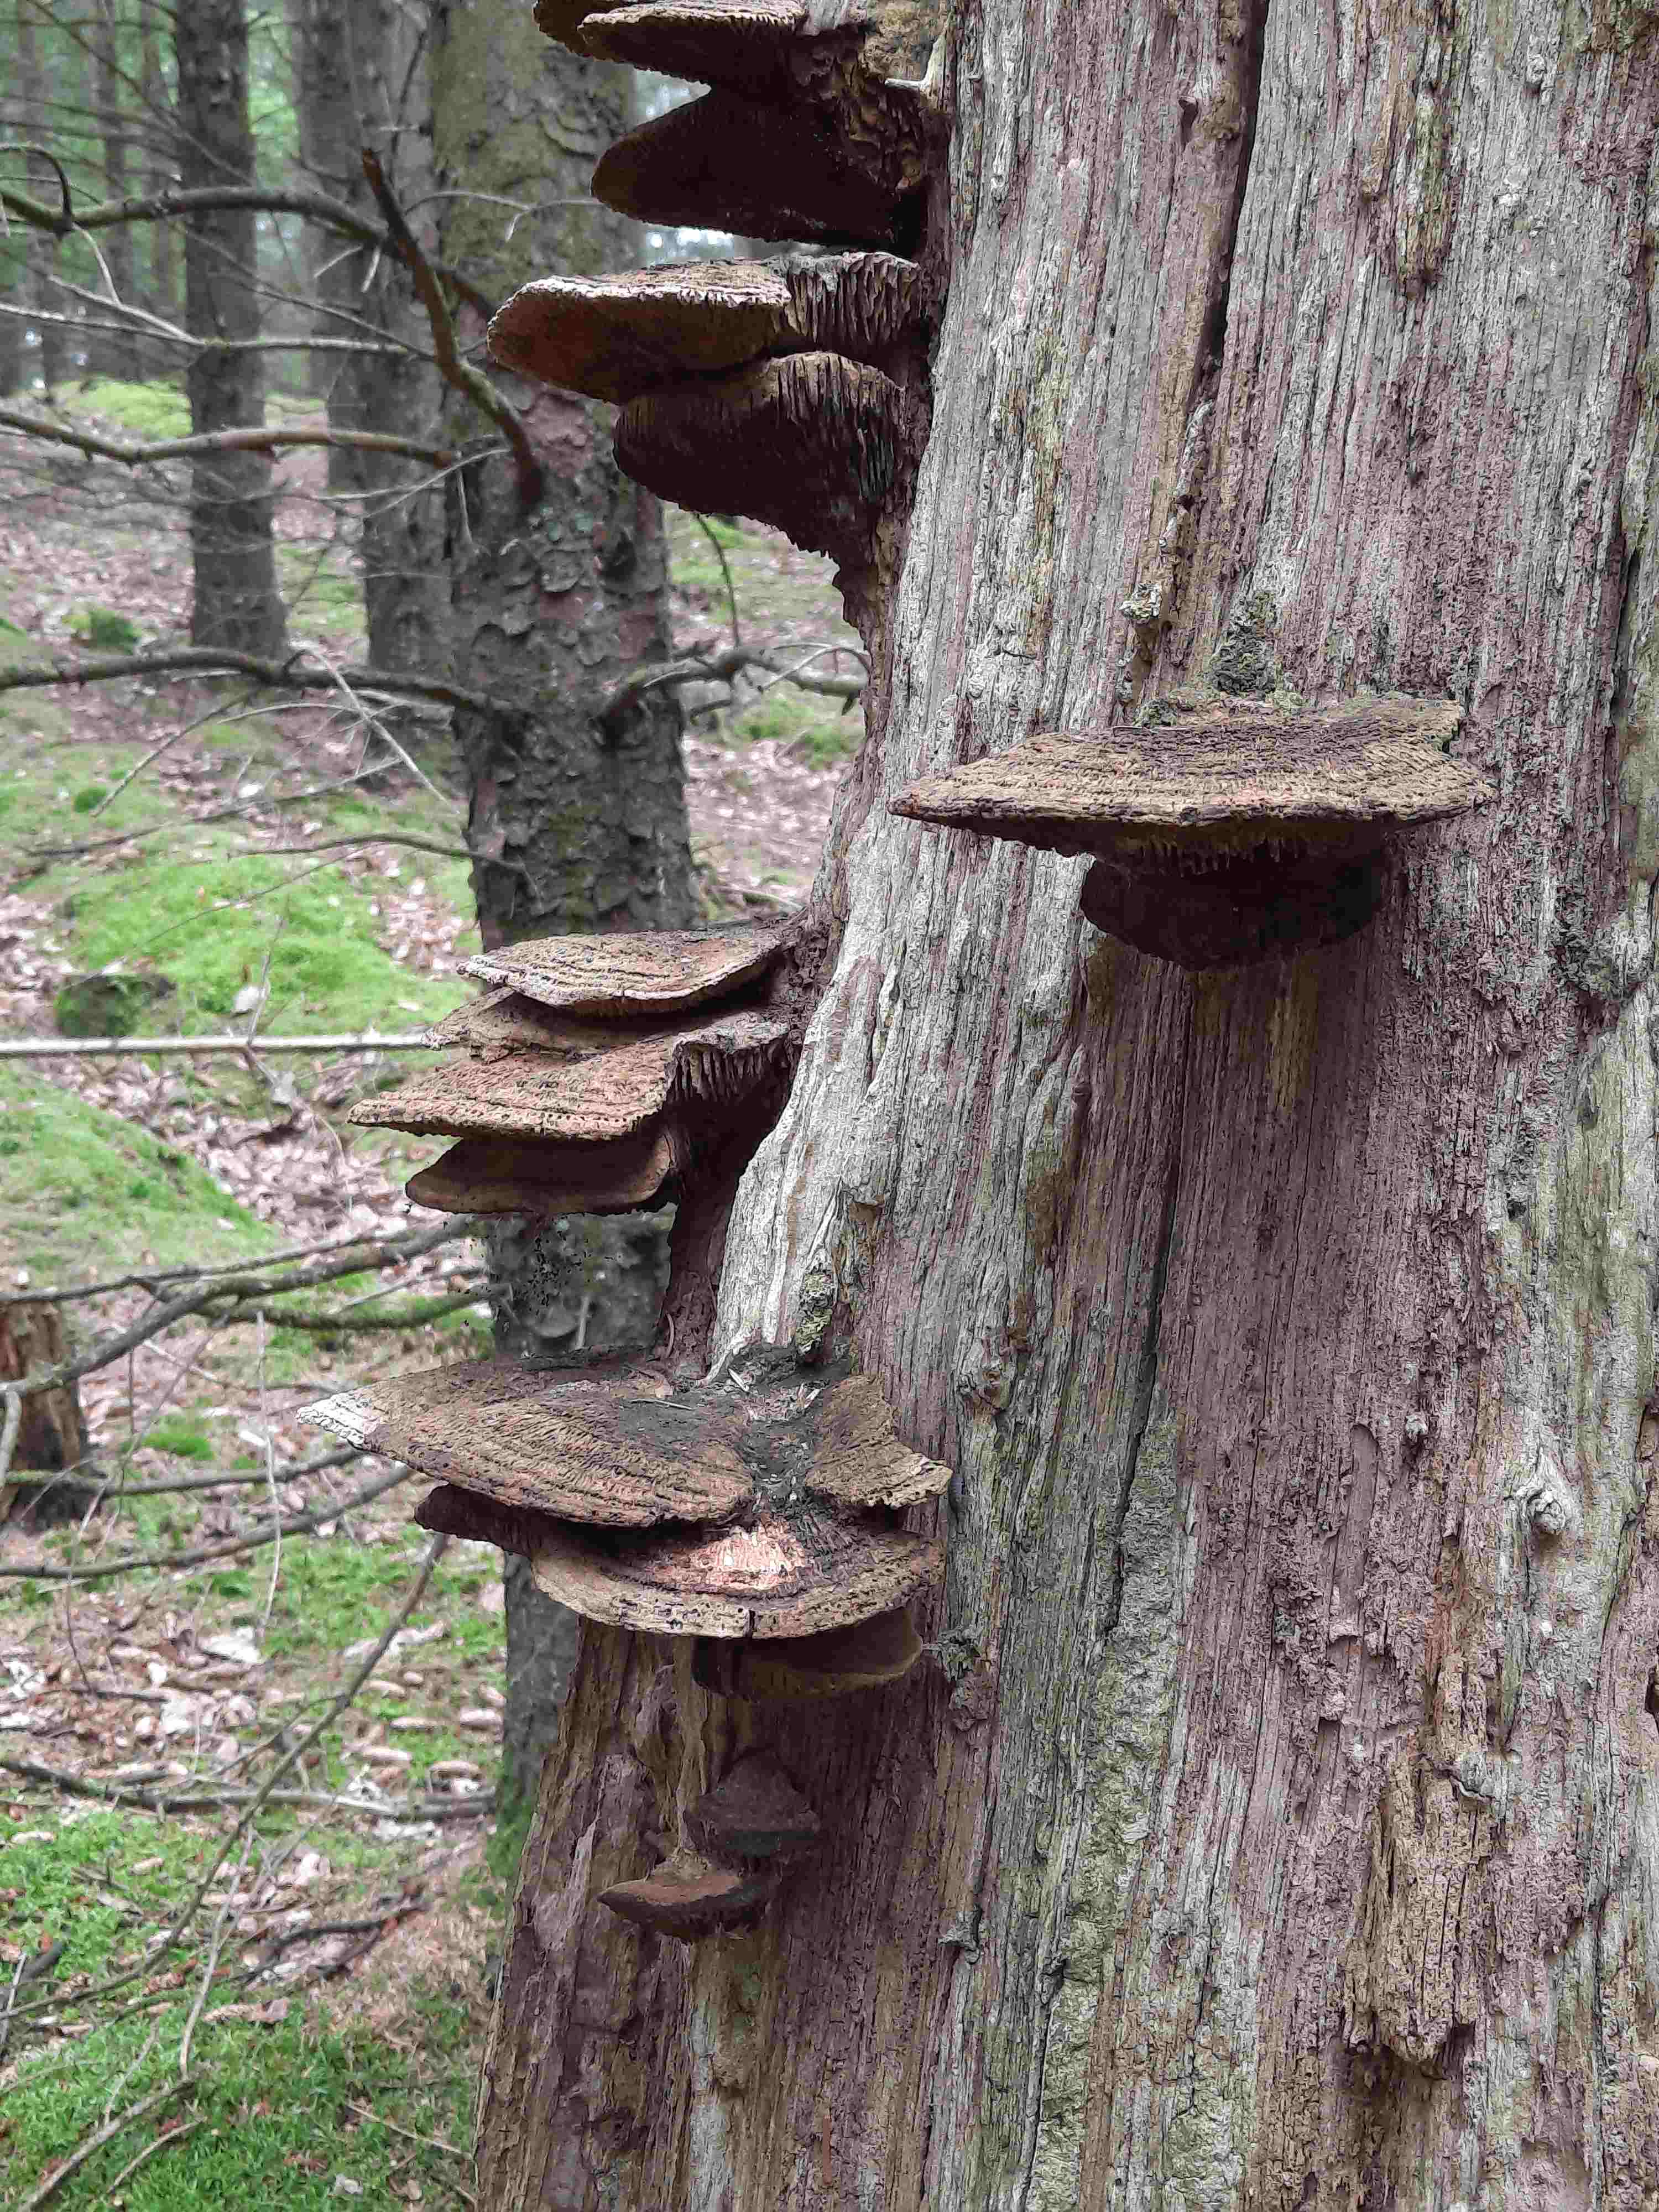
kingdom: Fungi
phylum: Basidiomycota
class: Agaricomycetes
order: Polyporales
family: Fomitopsidaceae
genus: Daedalea
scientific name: Daedalea quercina
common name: ege-labyrintsvamp
